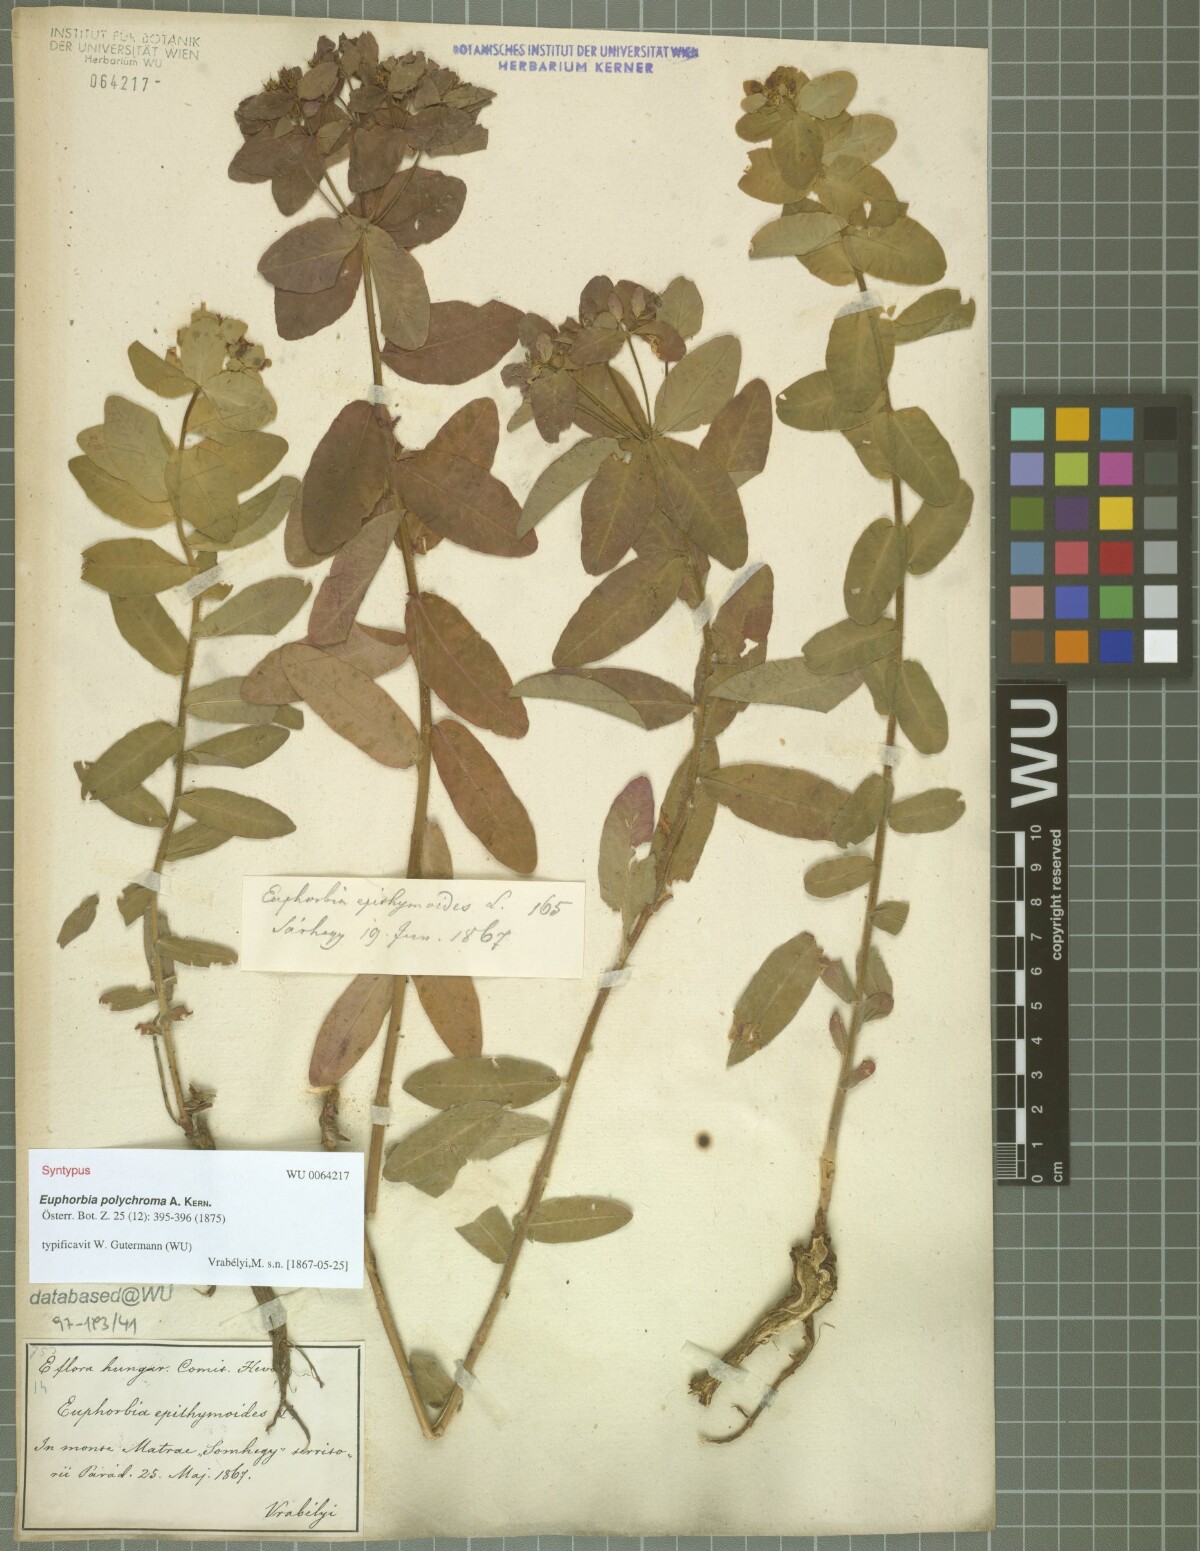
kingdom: Plantae
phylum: Tracheophyta
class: Magnoliopsida
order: Malpighiales
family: Euphorbiaceae
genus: Euphorbia
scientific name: Euphorbia epithymoides
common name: Cushion spurge
